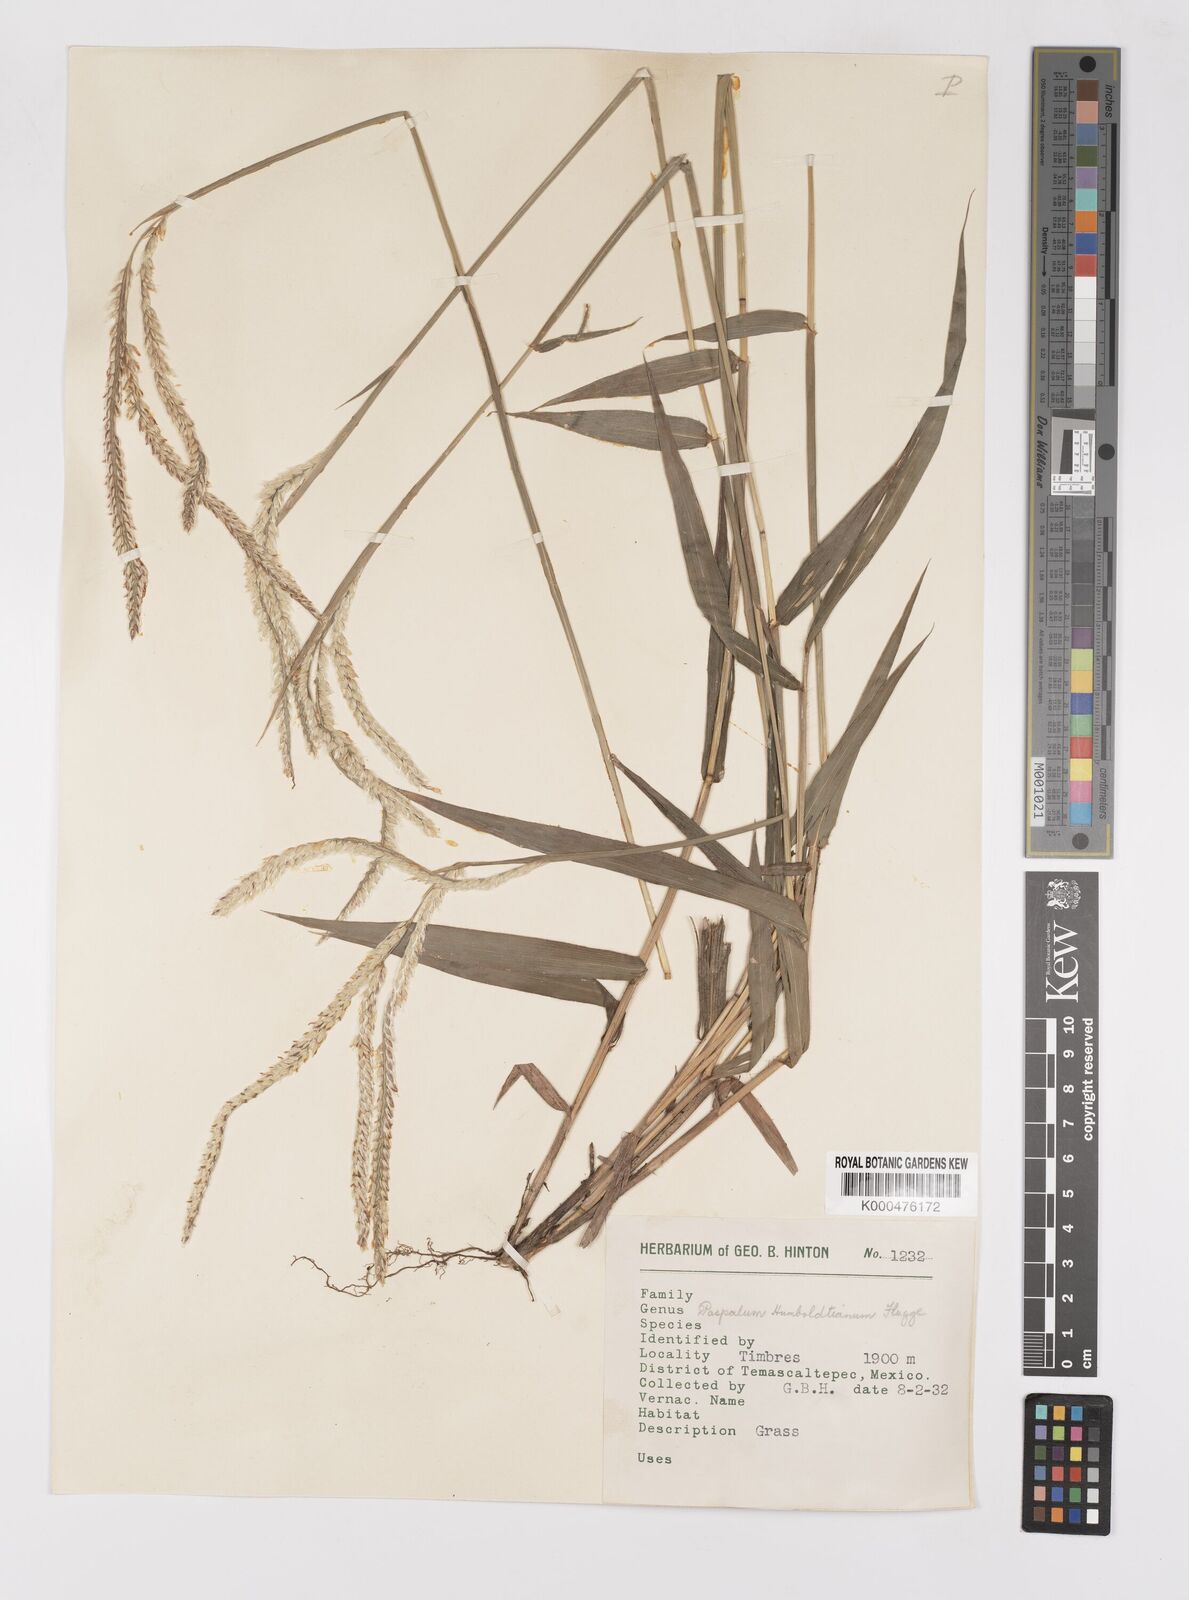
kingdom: Plantae
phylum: Tracheophyta
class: Liliopsida
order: Poales
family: Poaceae
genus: Paspalum
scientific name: Paspalum
